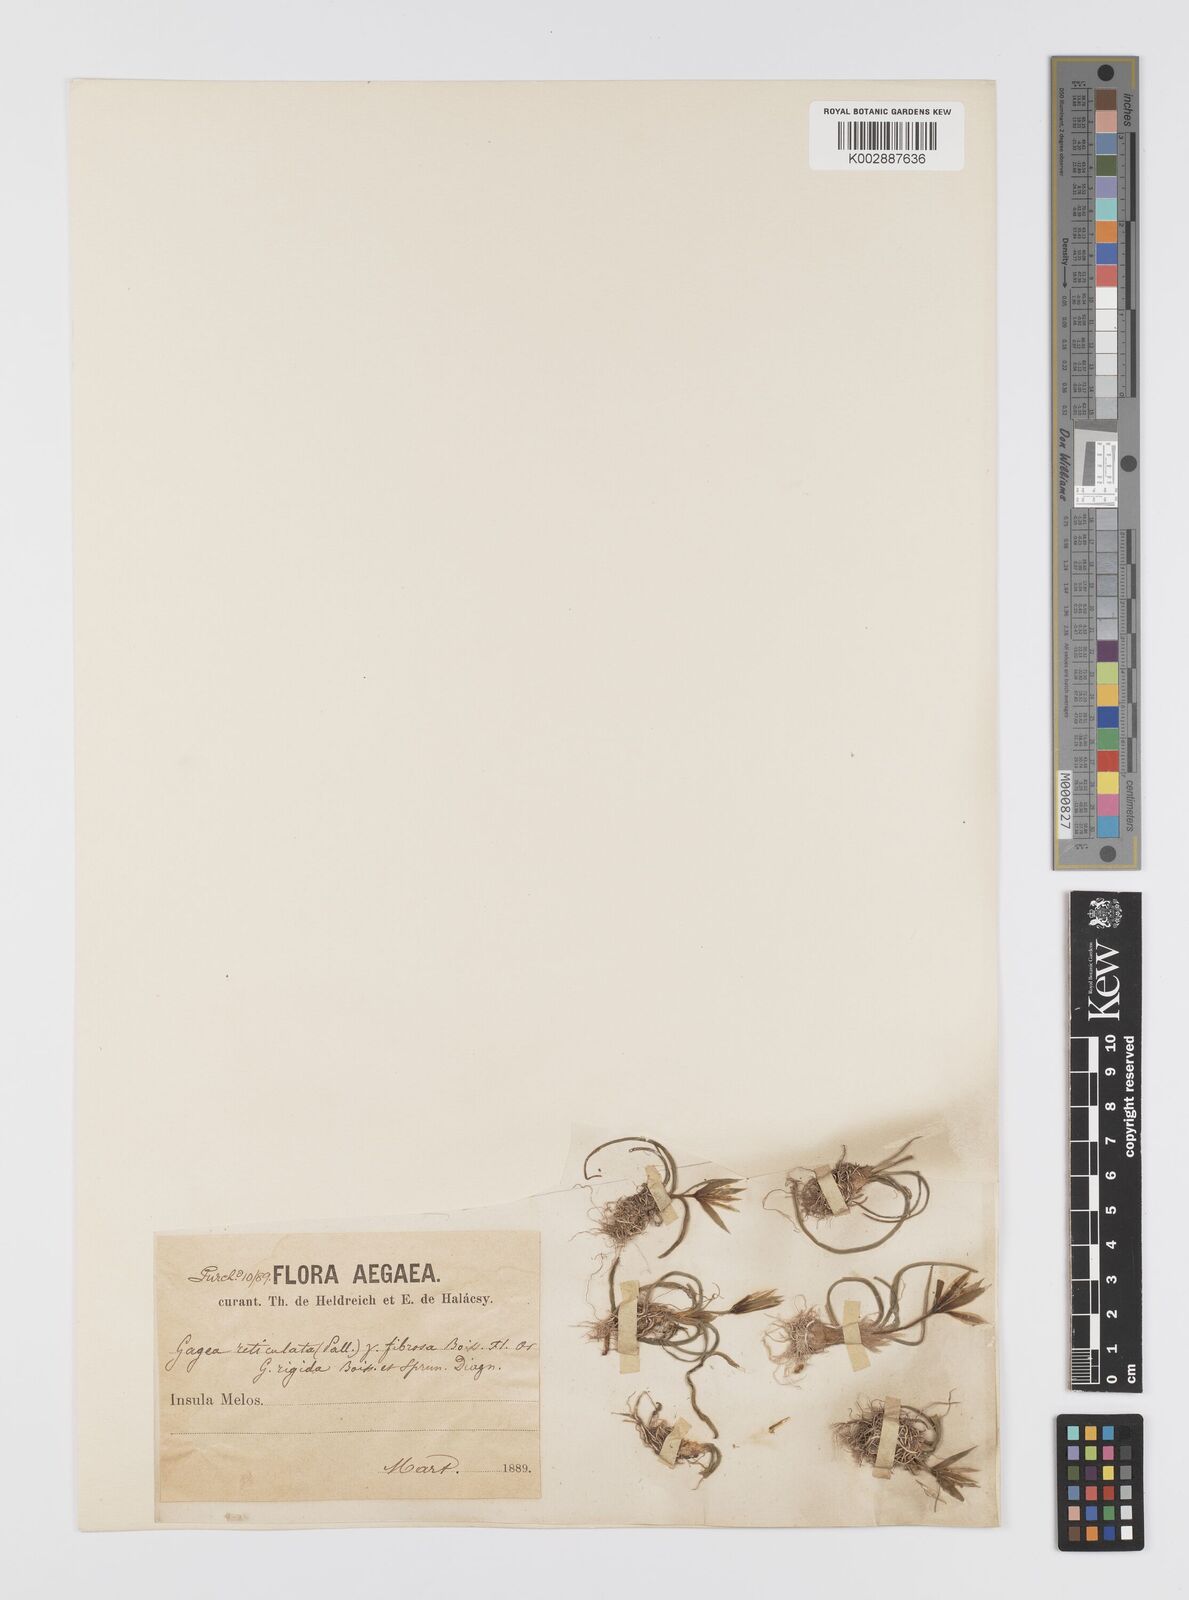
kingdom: Plantae
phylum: Tracheophyta
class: Liliopsida
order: Liliales
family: Liliaceae
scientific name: Liliaceae
